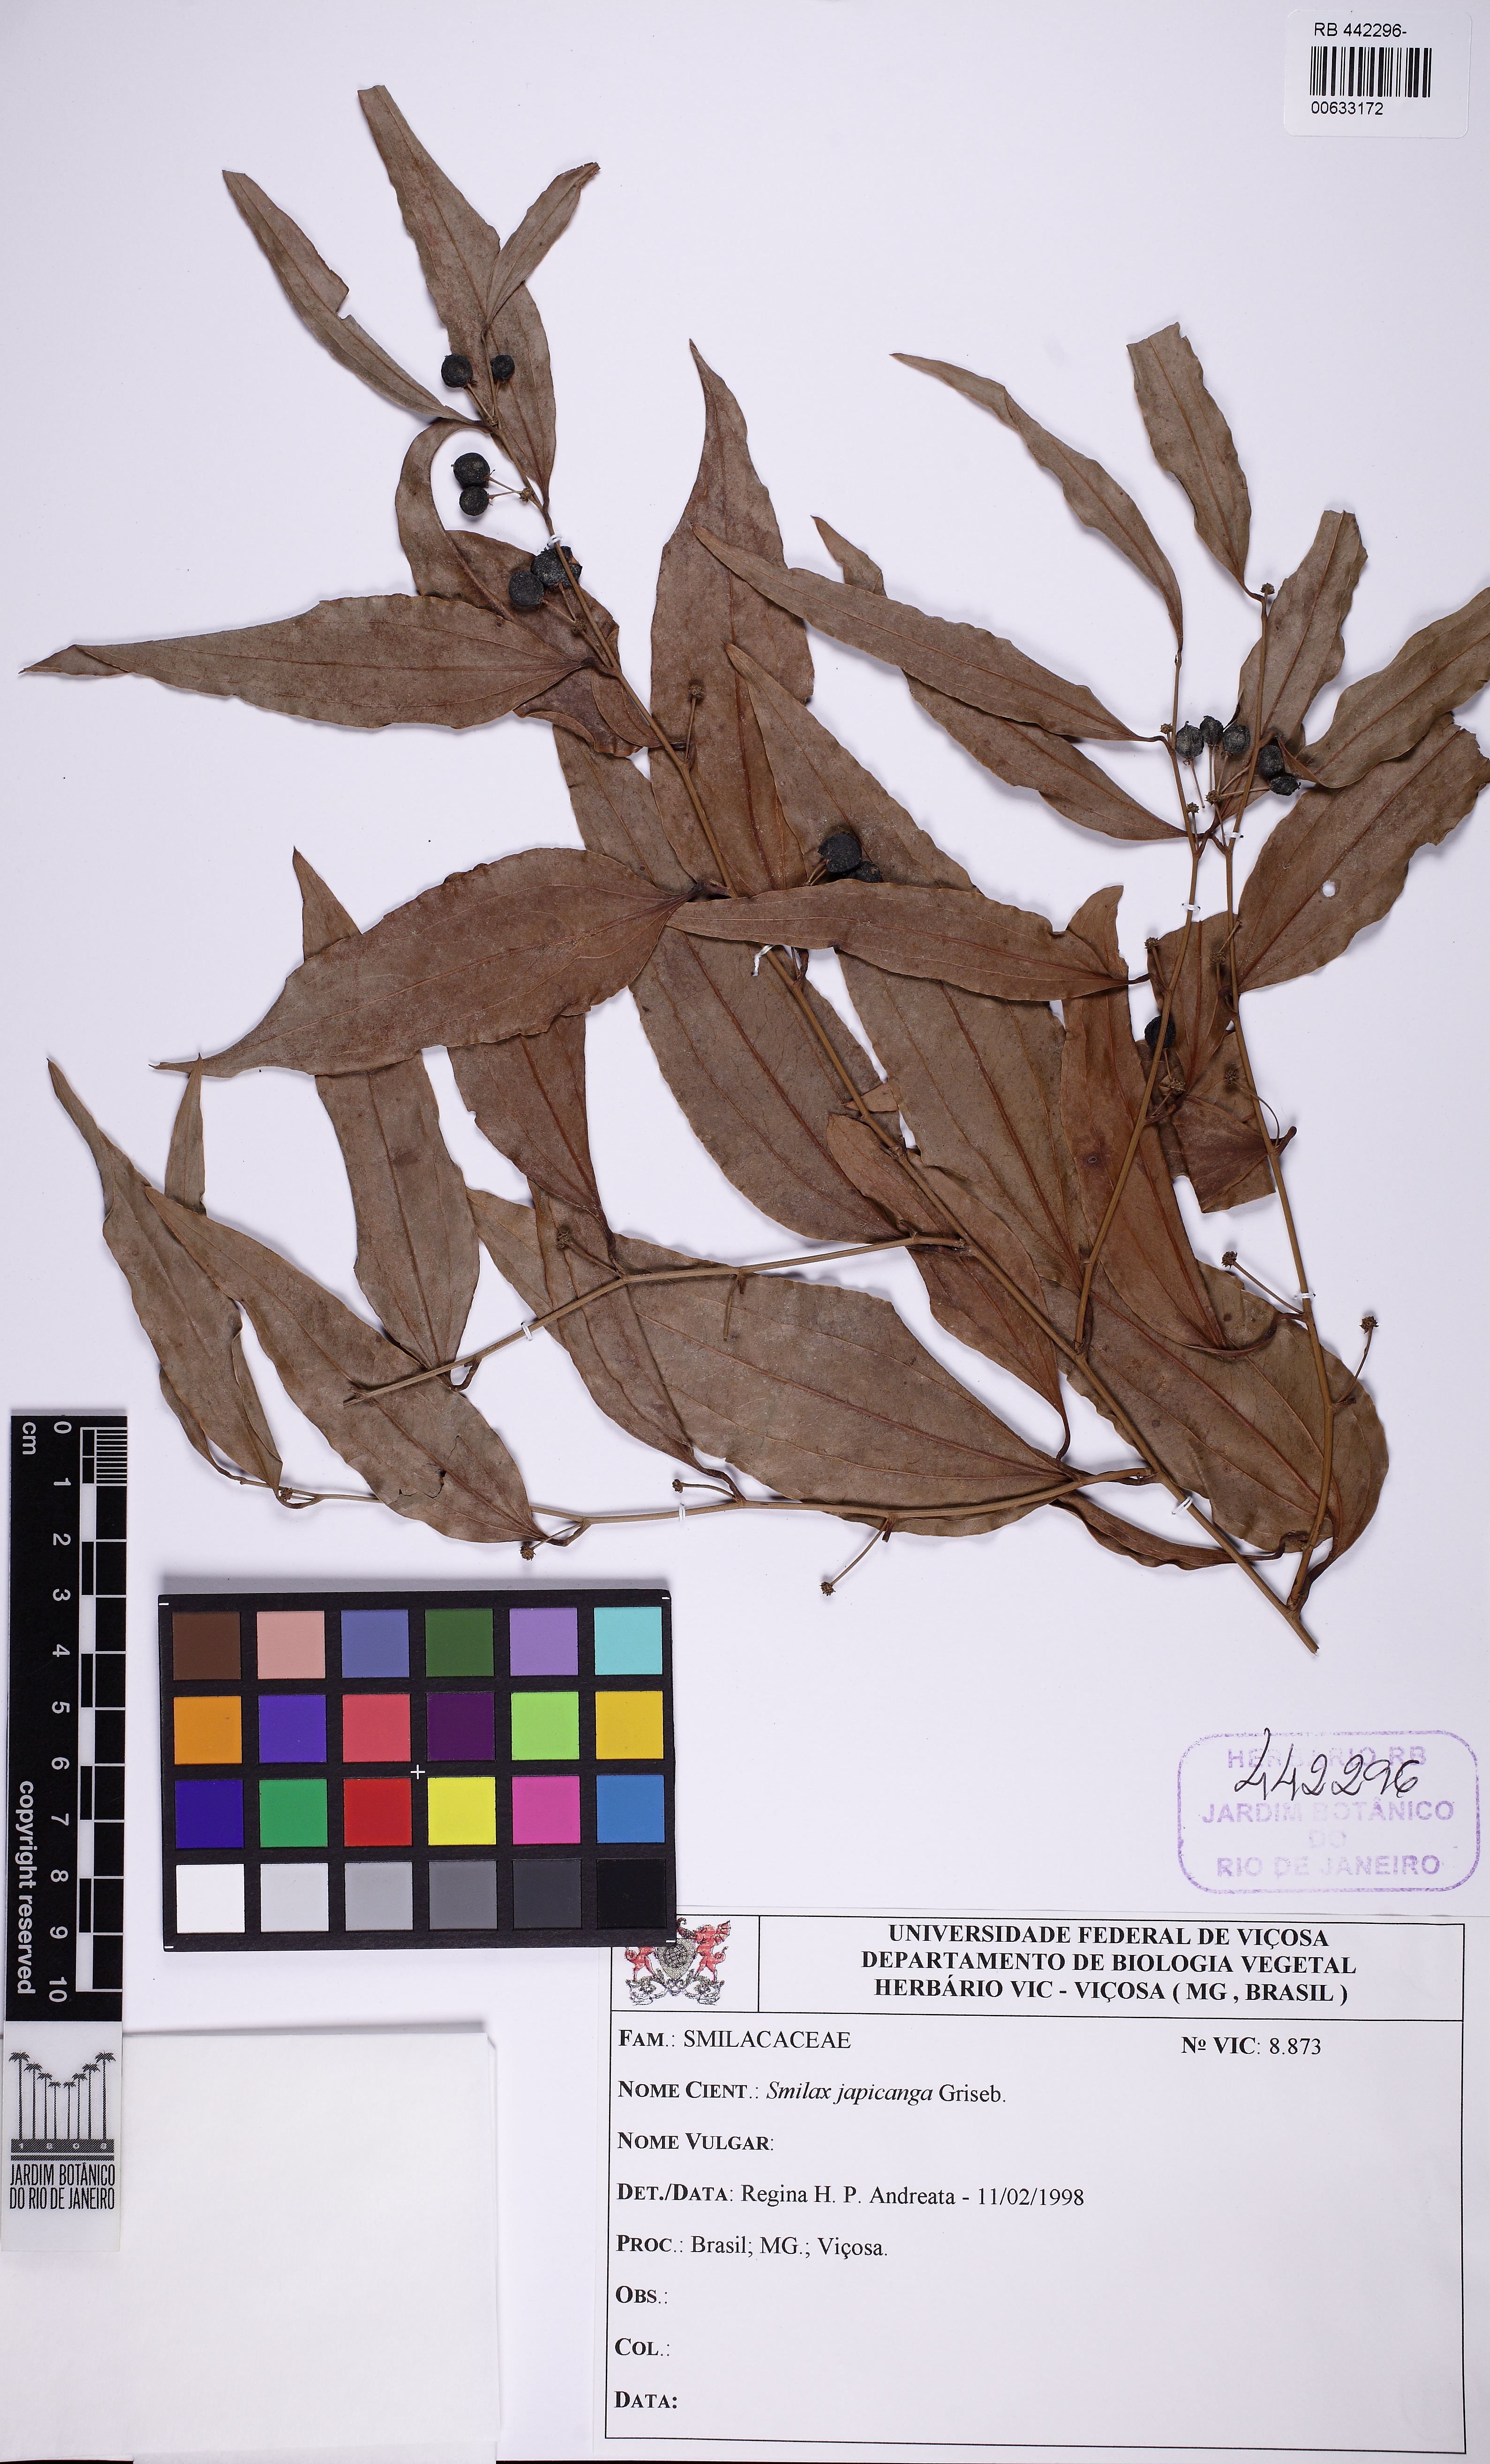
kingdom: Plantae
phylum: Tracheophyta
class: Liliopsida
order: Liliales
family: Smilacaceae
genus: Smilax
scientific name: Smilax japicanga
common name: Japicanga
